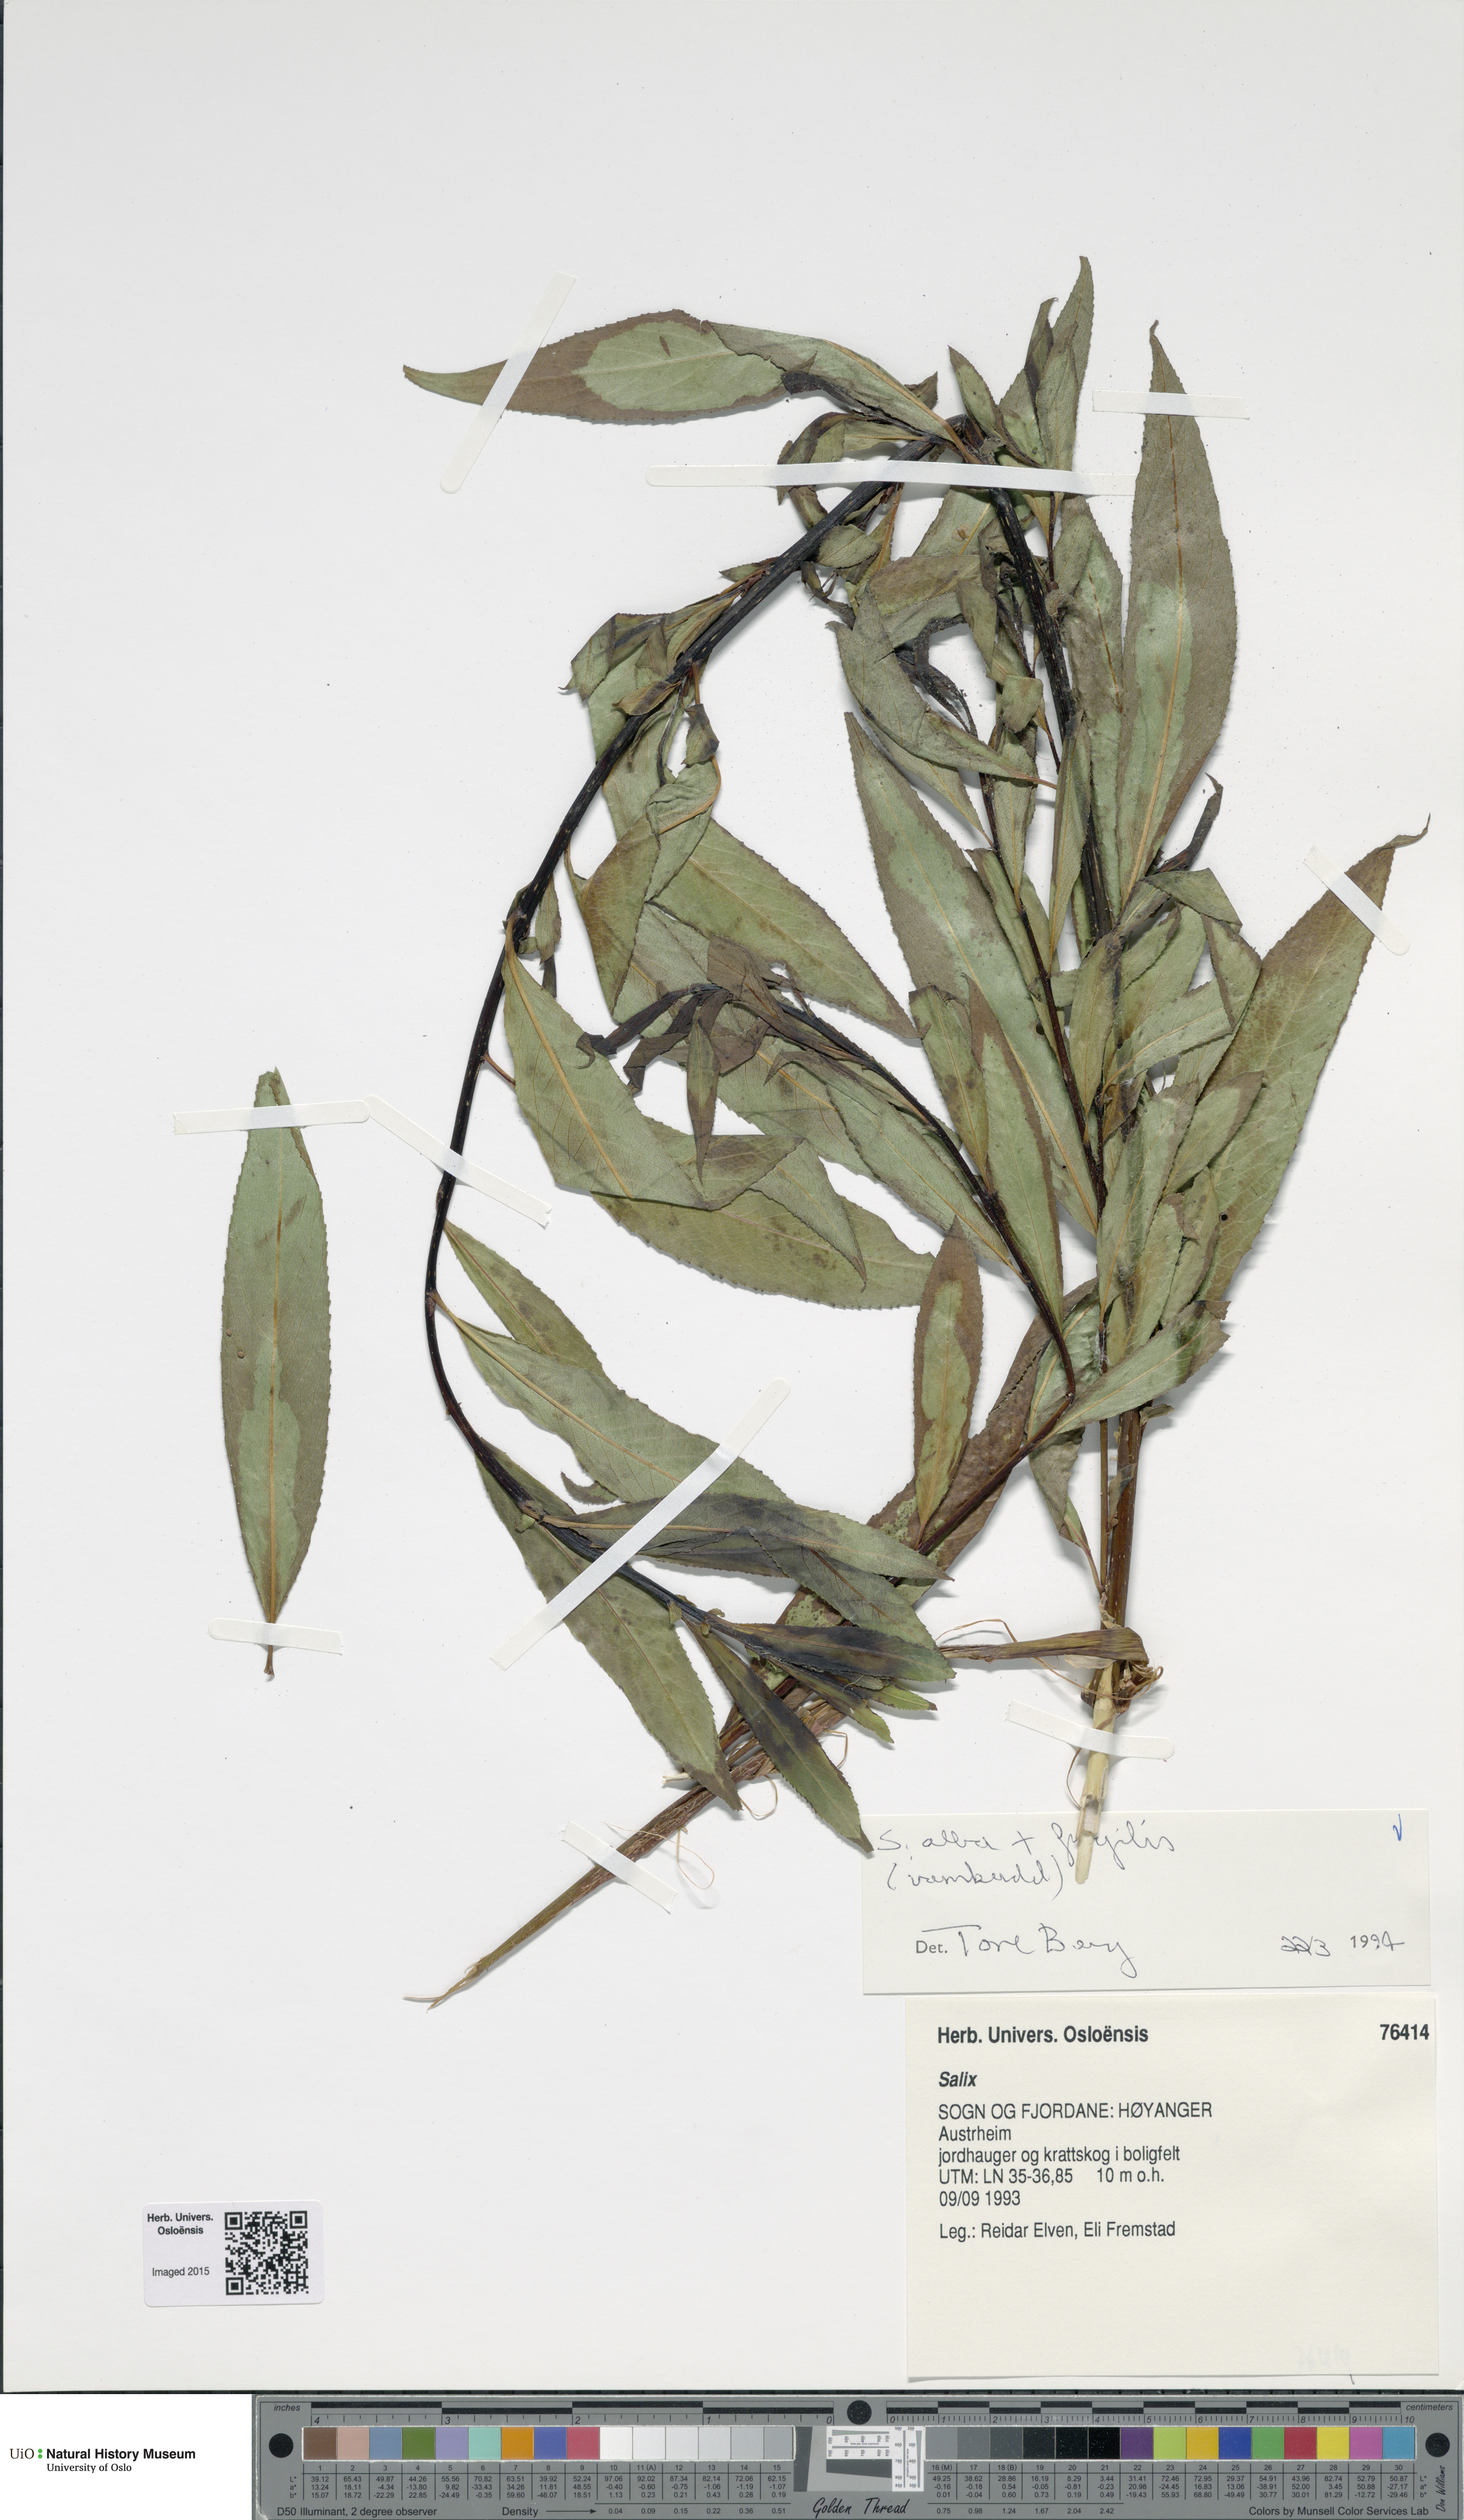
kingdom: Plantae
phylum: Tracheophyta
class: Magnoliopsida
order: Malpighiales
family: Salicaceae
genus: Salix
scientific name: Salix
